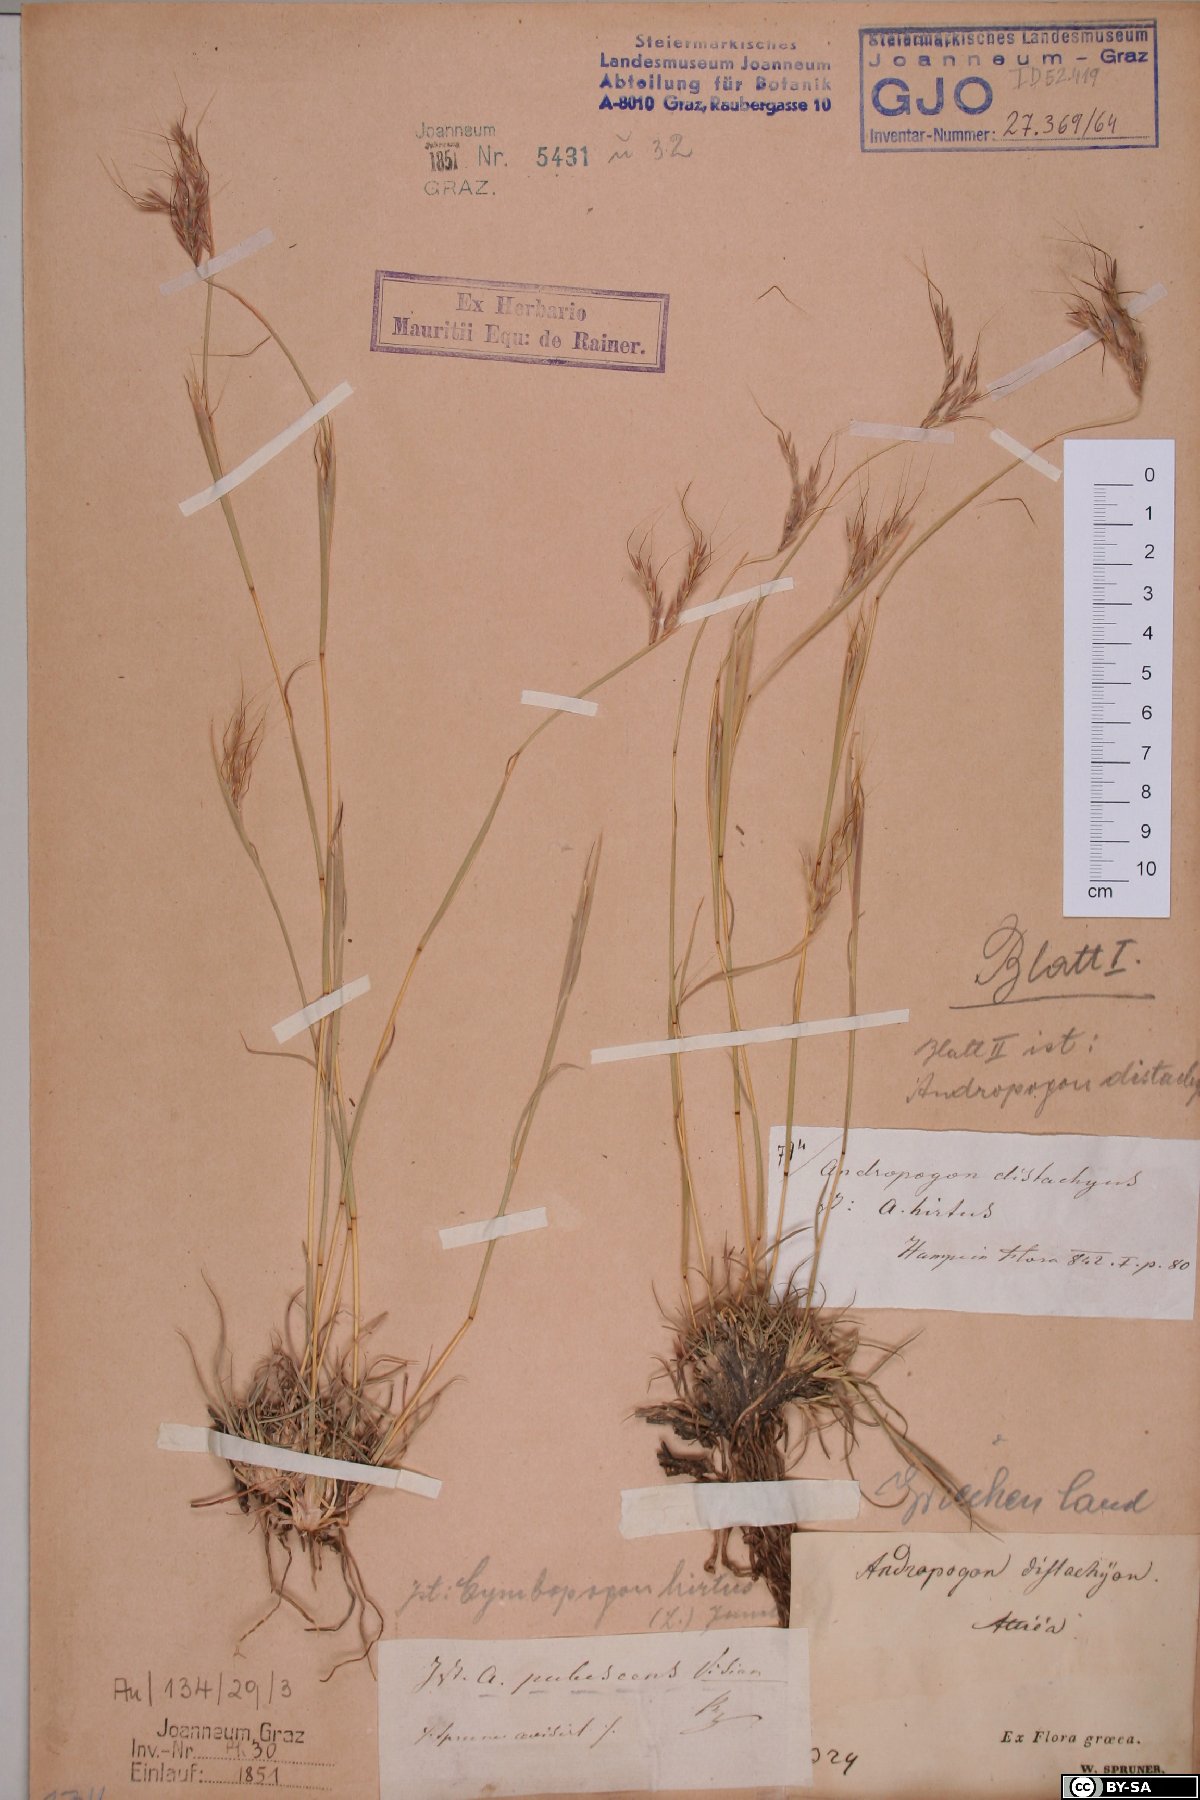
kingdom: Plantae
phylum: Tracheophyta
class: Liliopsida
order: Poales
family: Poaceae
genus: Andropogon
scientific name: Andropogon distachyos
